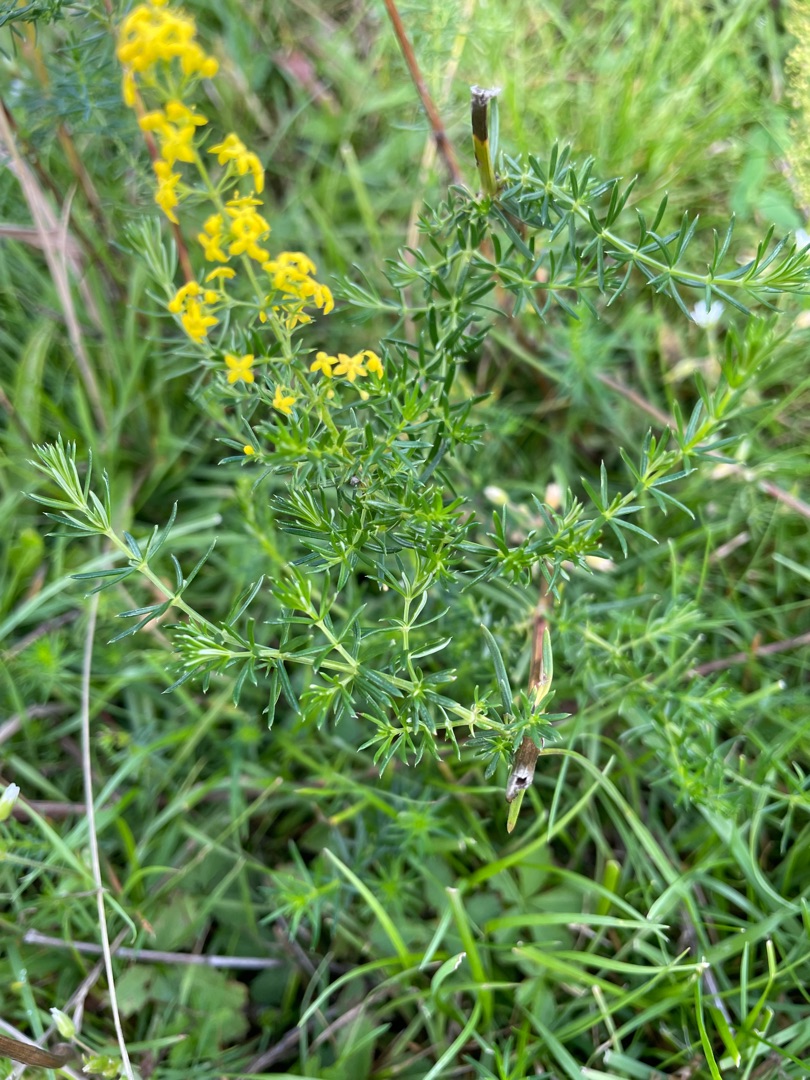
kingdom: Plantae
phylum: Tracheophyta
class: Magnoliopsida
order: Gentianales
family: Rubiaceae
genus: Galium
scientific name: Galium verum
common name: Gul snerre
